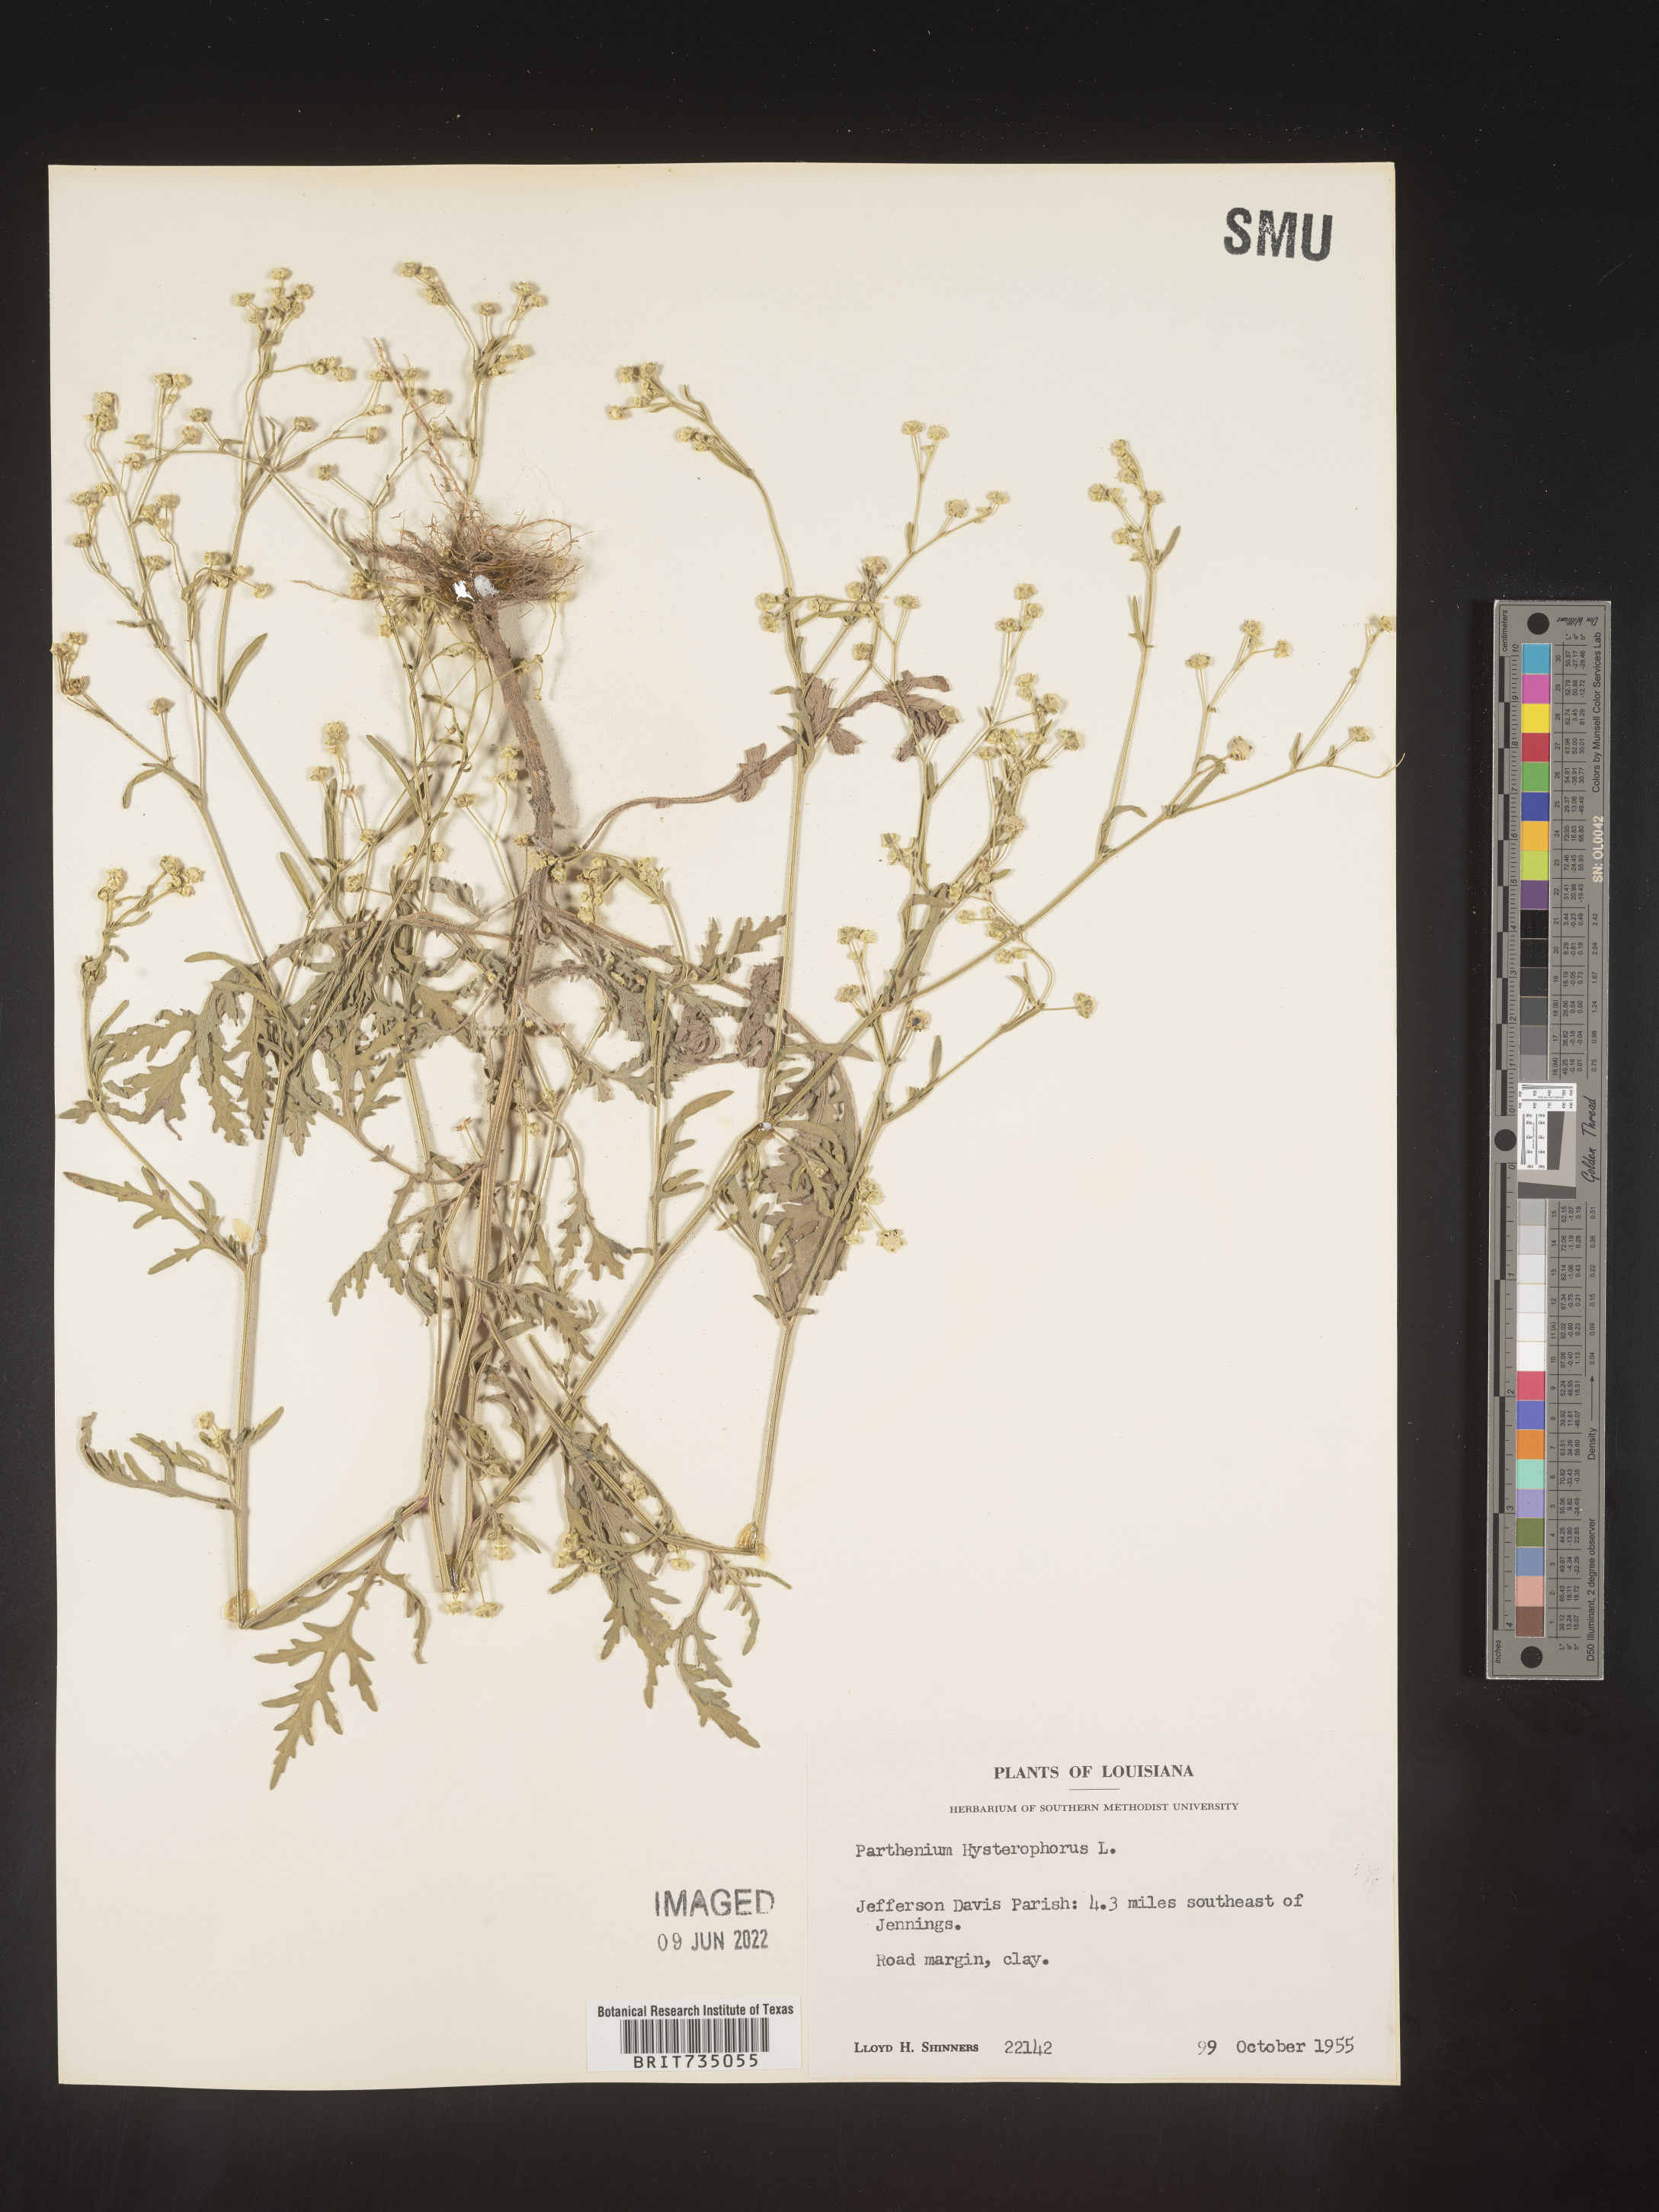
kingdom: Plantae
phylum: Tracheophyta
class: Magnoliopsida
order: Asterales
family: Asteraceae
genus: Parthenium
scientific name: Parthenium hysterophorus
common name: Santa maria feverfew
